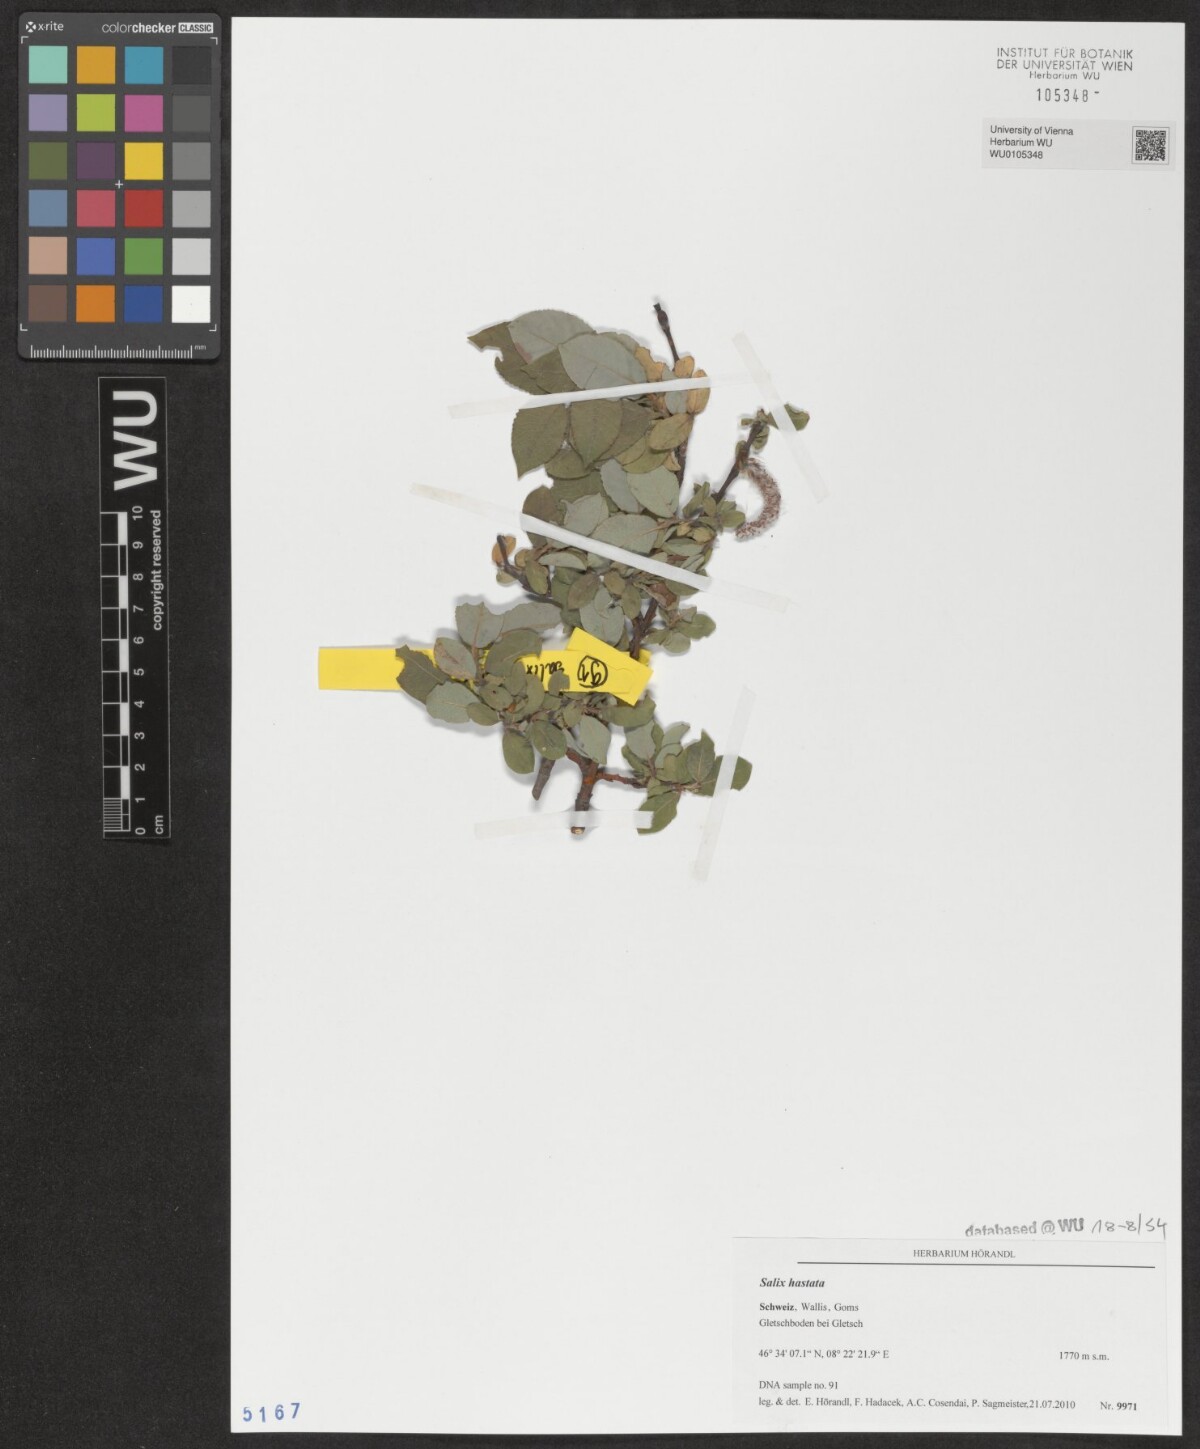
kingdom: Plantae
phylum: Tracheophyta
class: Magnoliopsida
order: Malpighiales
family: Salicaceae
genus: Salix
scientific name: Salix hastata
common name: Halberd willow
